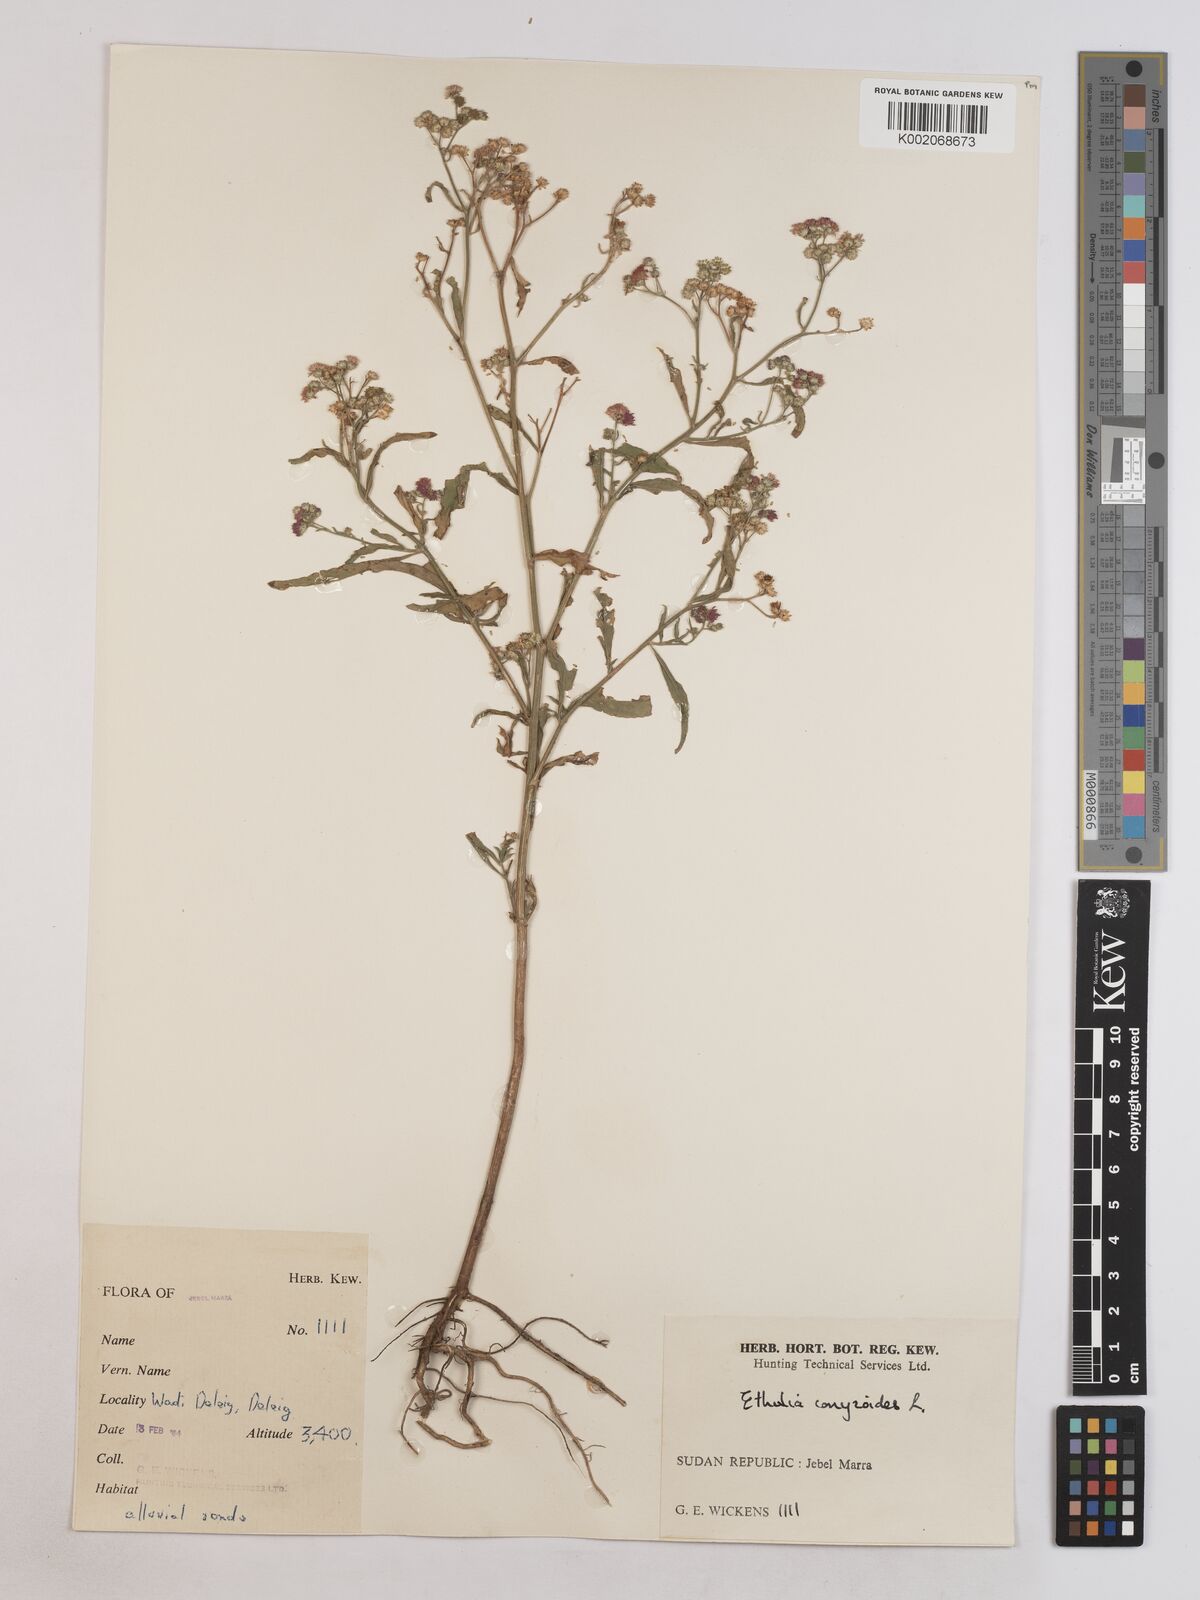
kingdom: Plantae
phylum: Tracheophyta
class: Magnoliopsida
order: Asterales
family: Asteraceae
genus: Ethulia
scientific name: Ethulia gracilis
